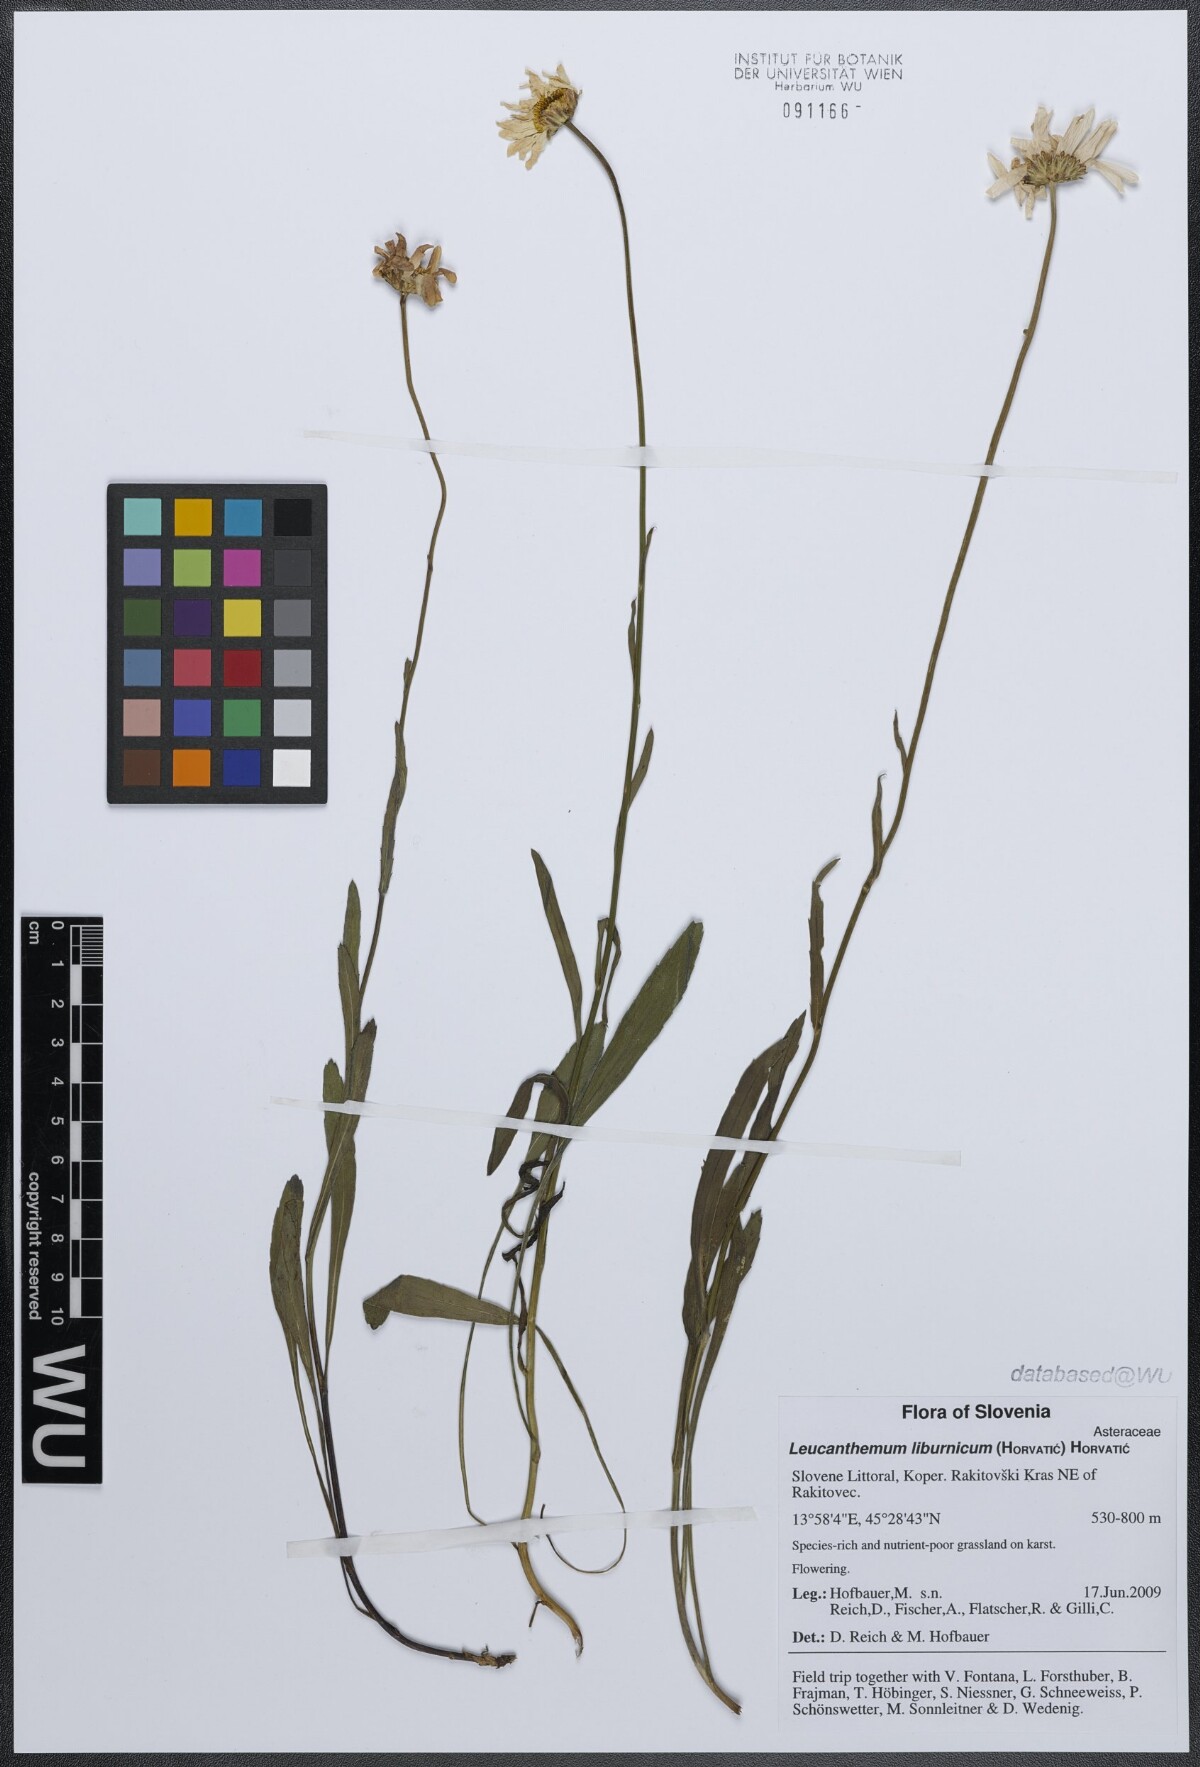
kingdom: Plantae
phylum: Tracheophyta
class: Magnoliopsida
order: Asterales
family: Asteraceae
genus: Leucanthemum
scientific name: Leucanthemum adustum
